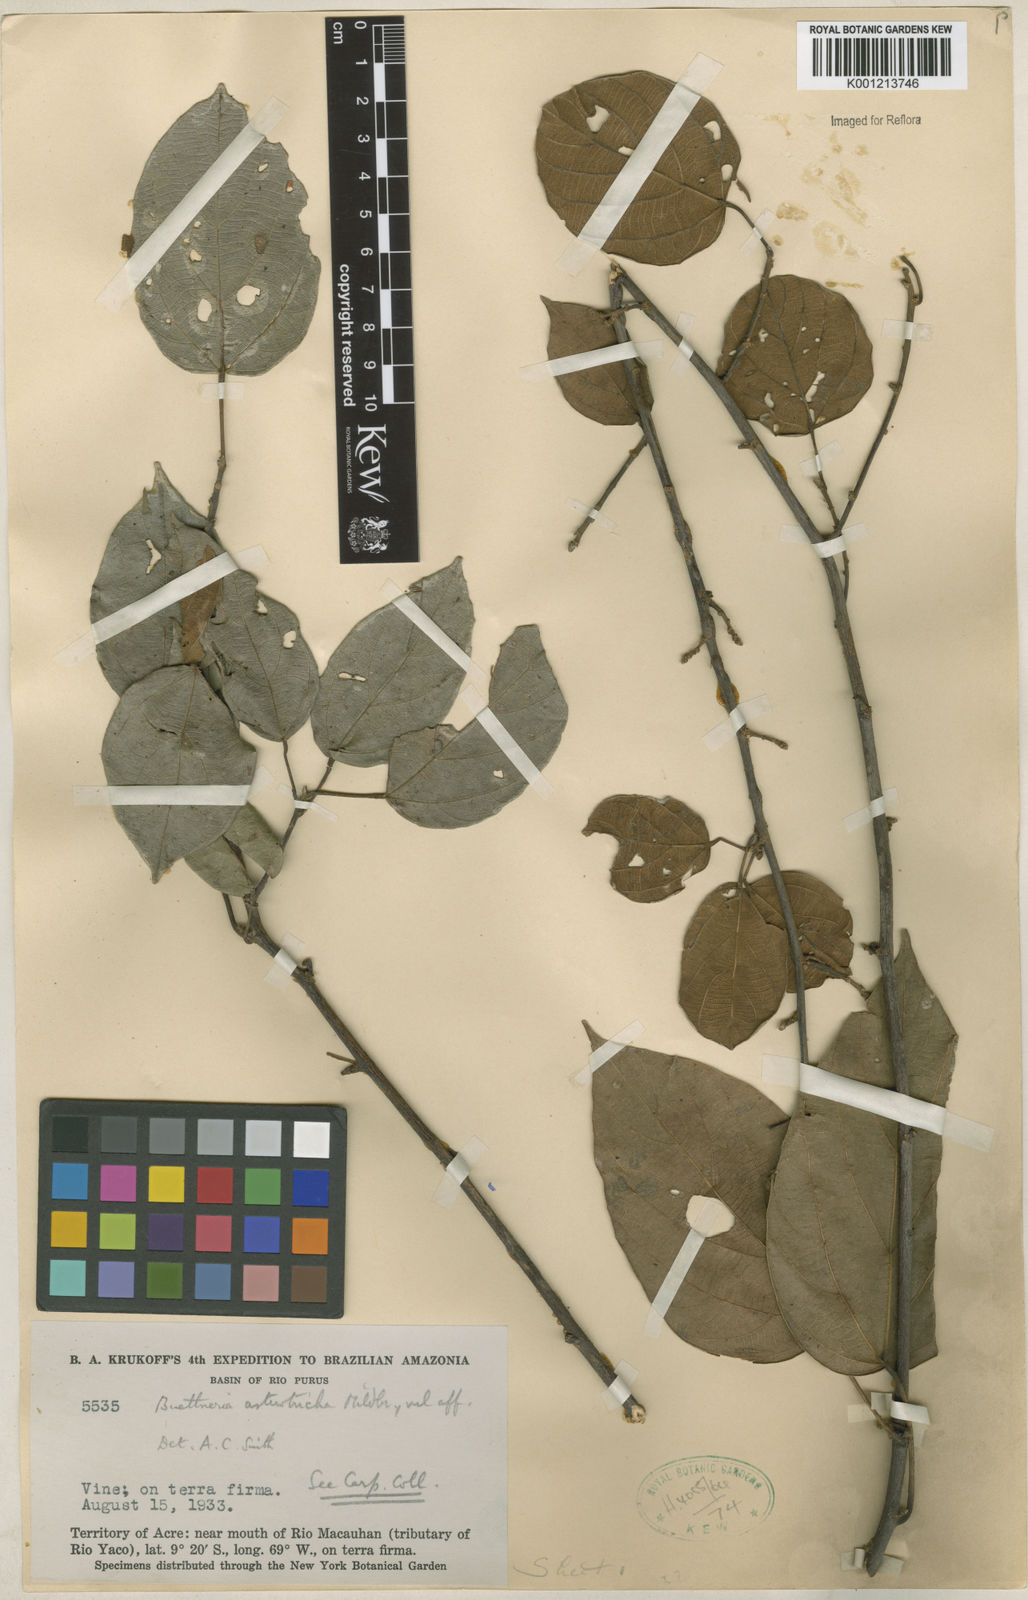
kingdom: Plantae
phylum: Tracheophyta
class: Magnoliopsida
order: Malvales
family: Malvaceae
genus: Byttneria
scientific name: Byttneria asterotricha
